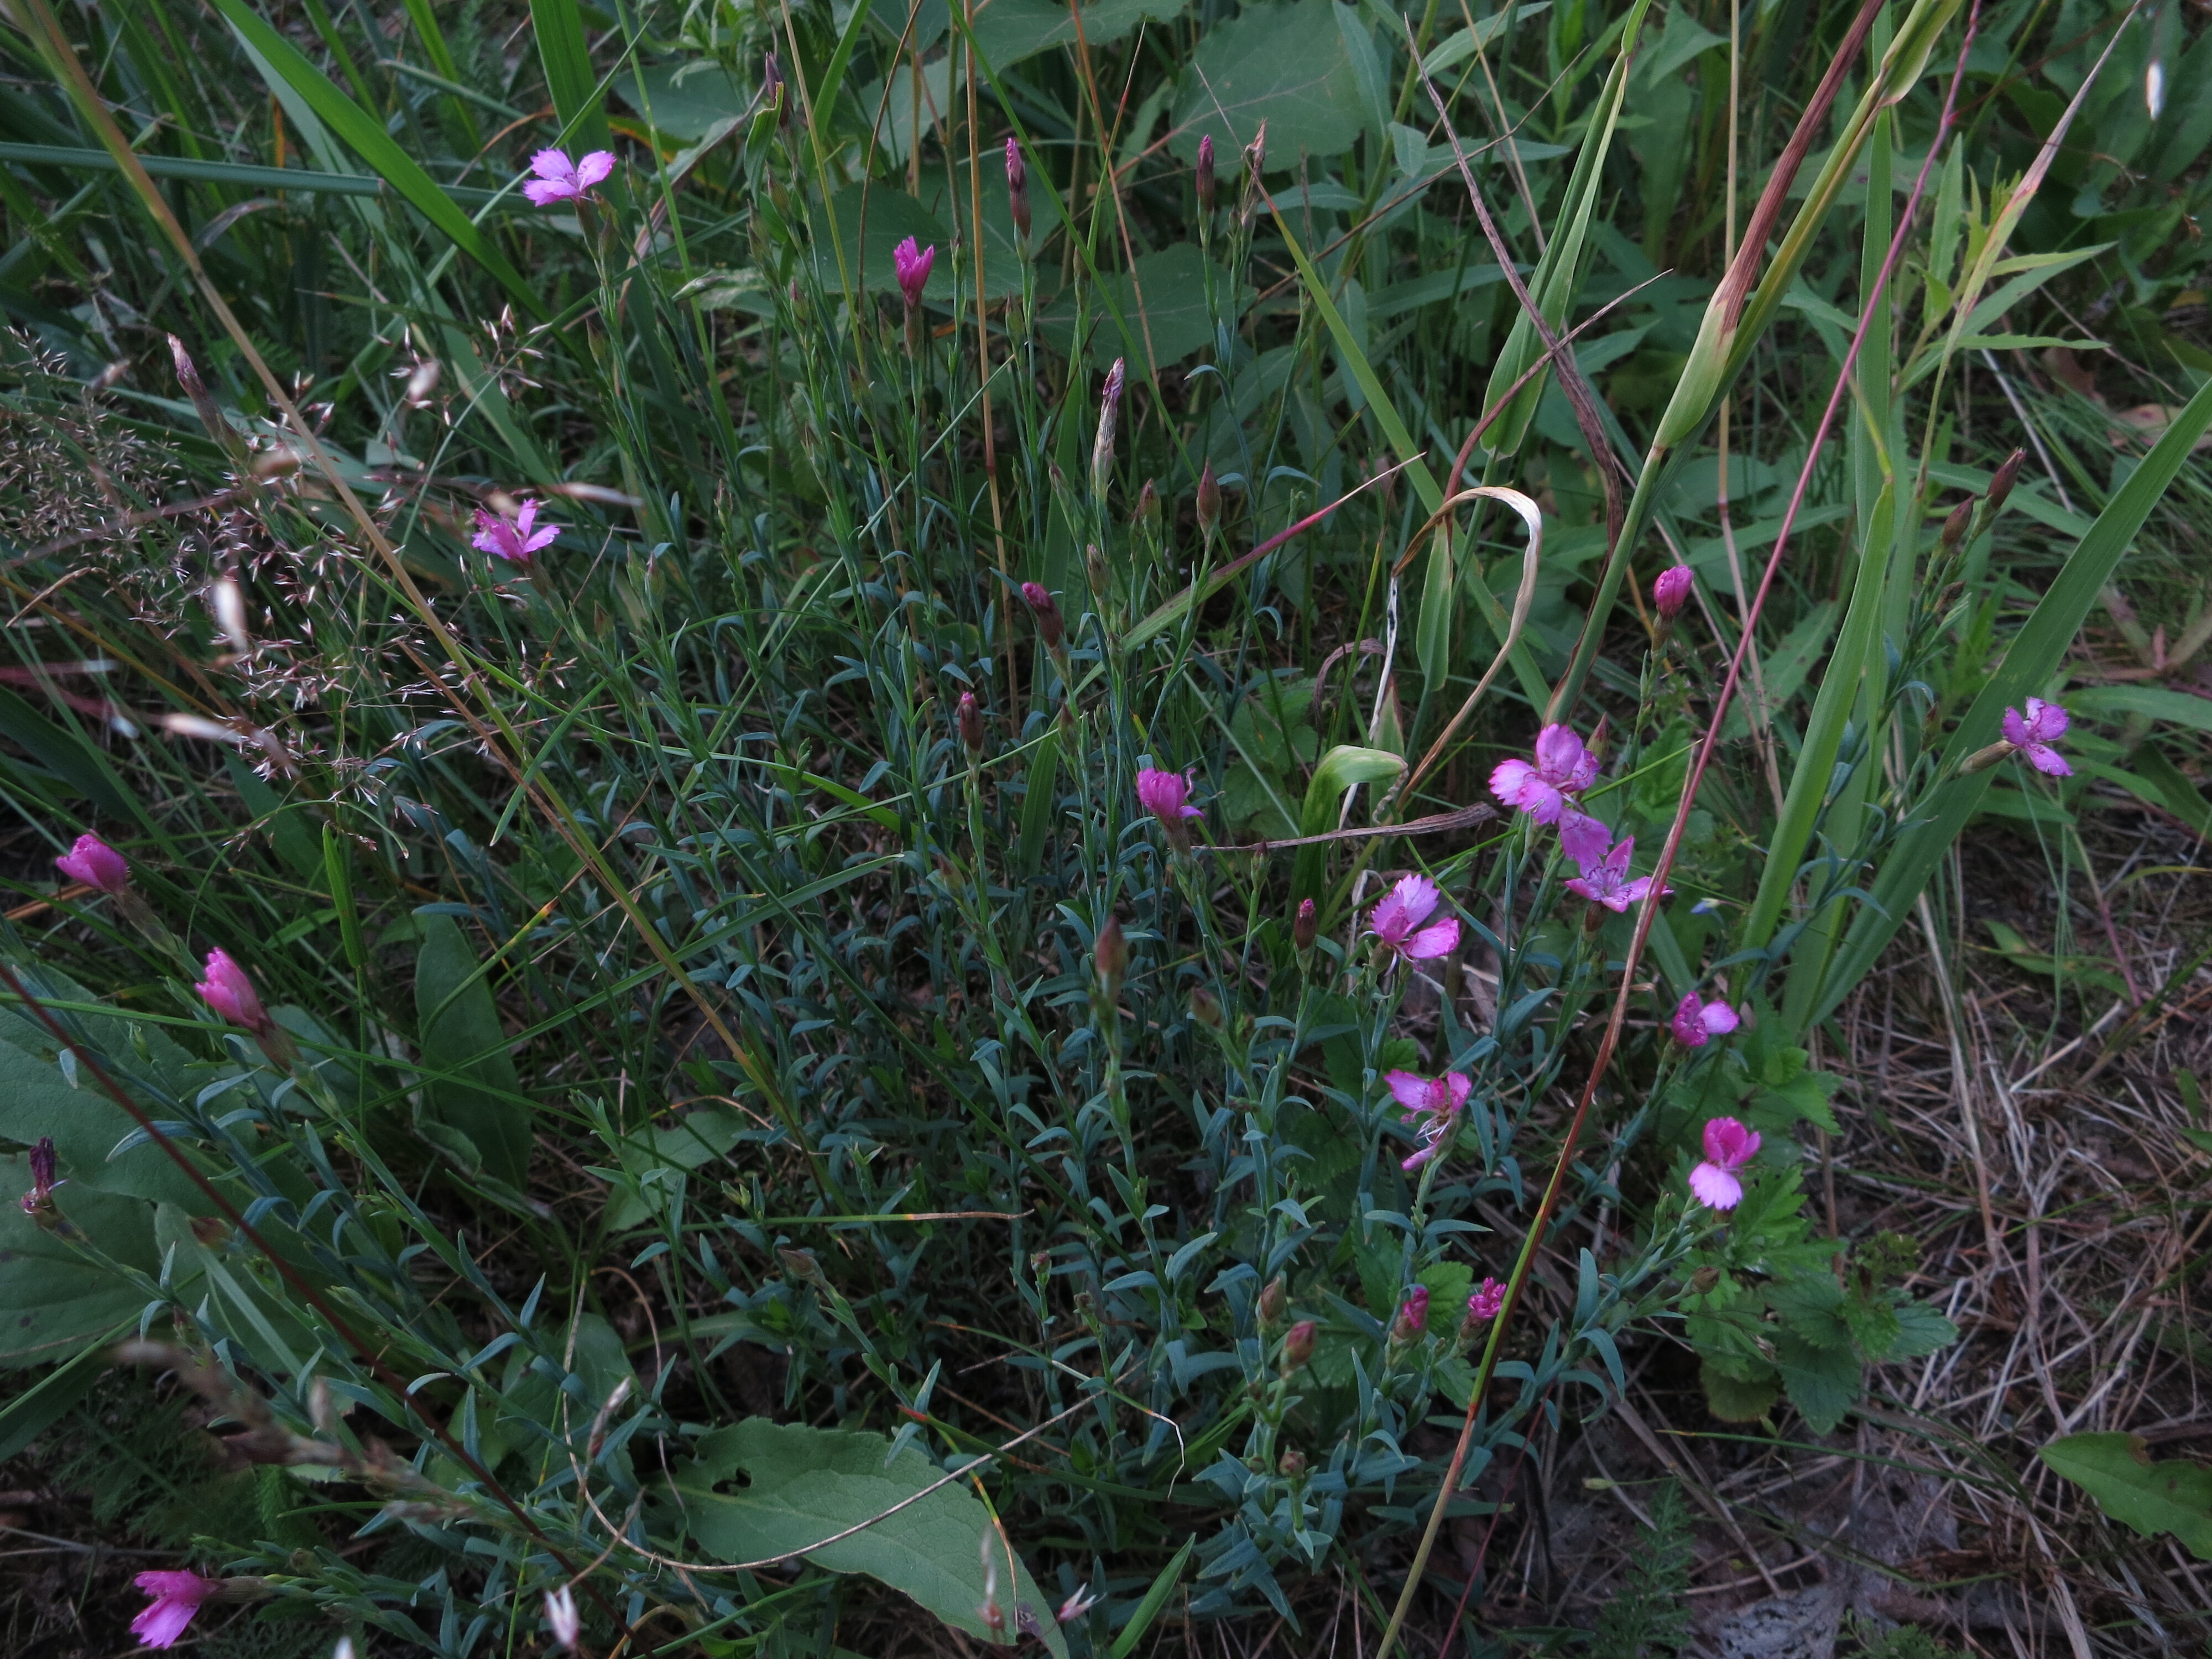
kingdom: Plantae
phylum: Tracheophyta
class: Magnoliopsida
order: Caryophyllales
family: Caryophyllaceae
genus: Dianthus
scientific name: Dianthus deltoides
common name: Maiden pink
